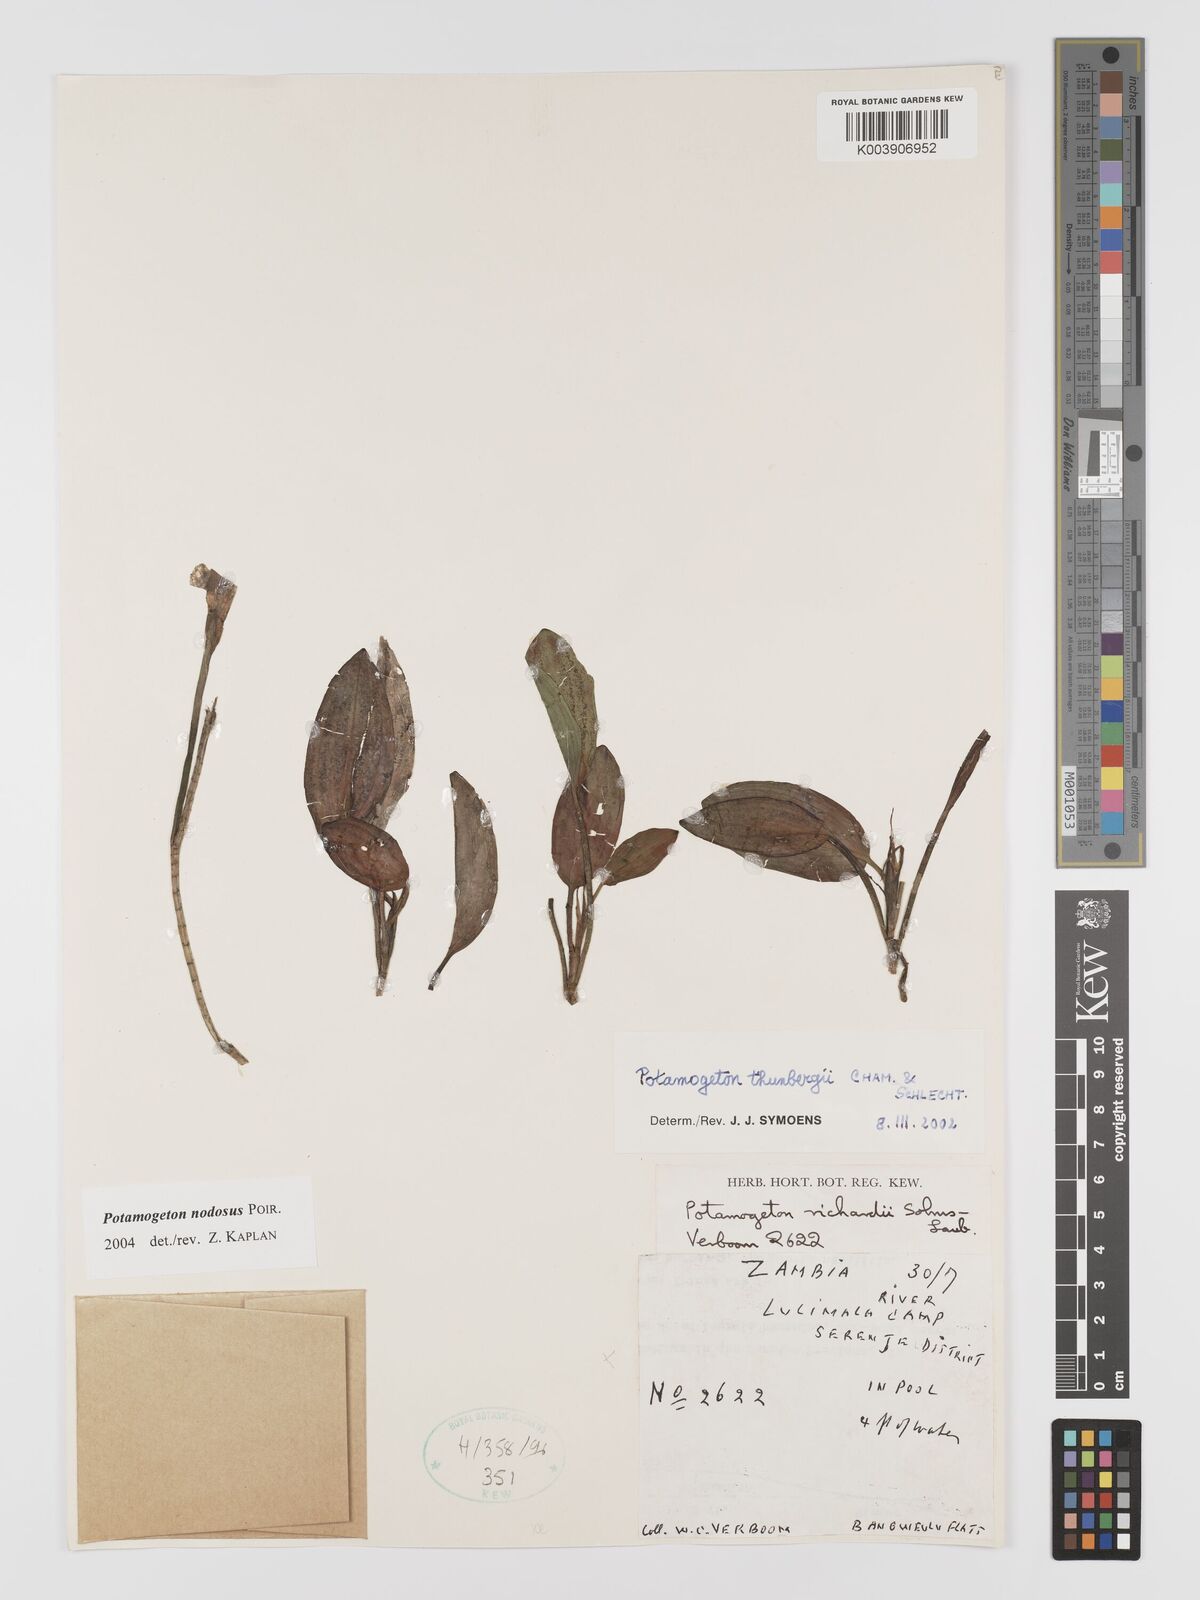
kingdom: Plantae
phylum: Tracheophyta
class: Liliopsida
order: Alismatales
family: Potamogetonaceae
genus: Potamogeton
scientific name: Potamogeton nodosus
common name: Loddon pondweed
